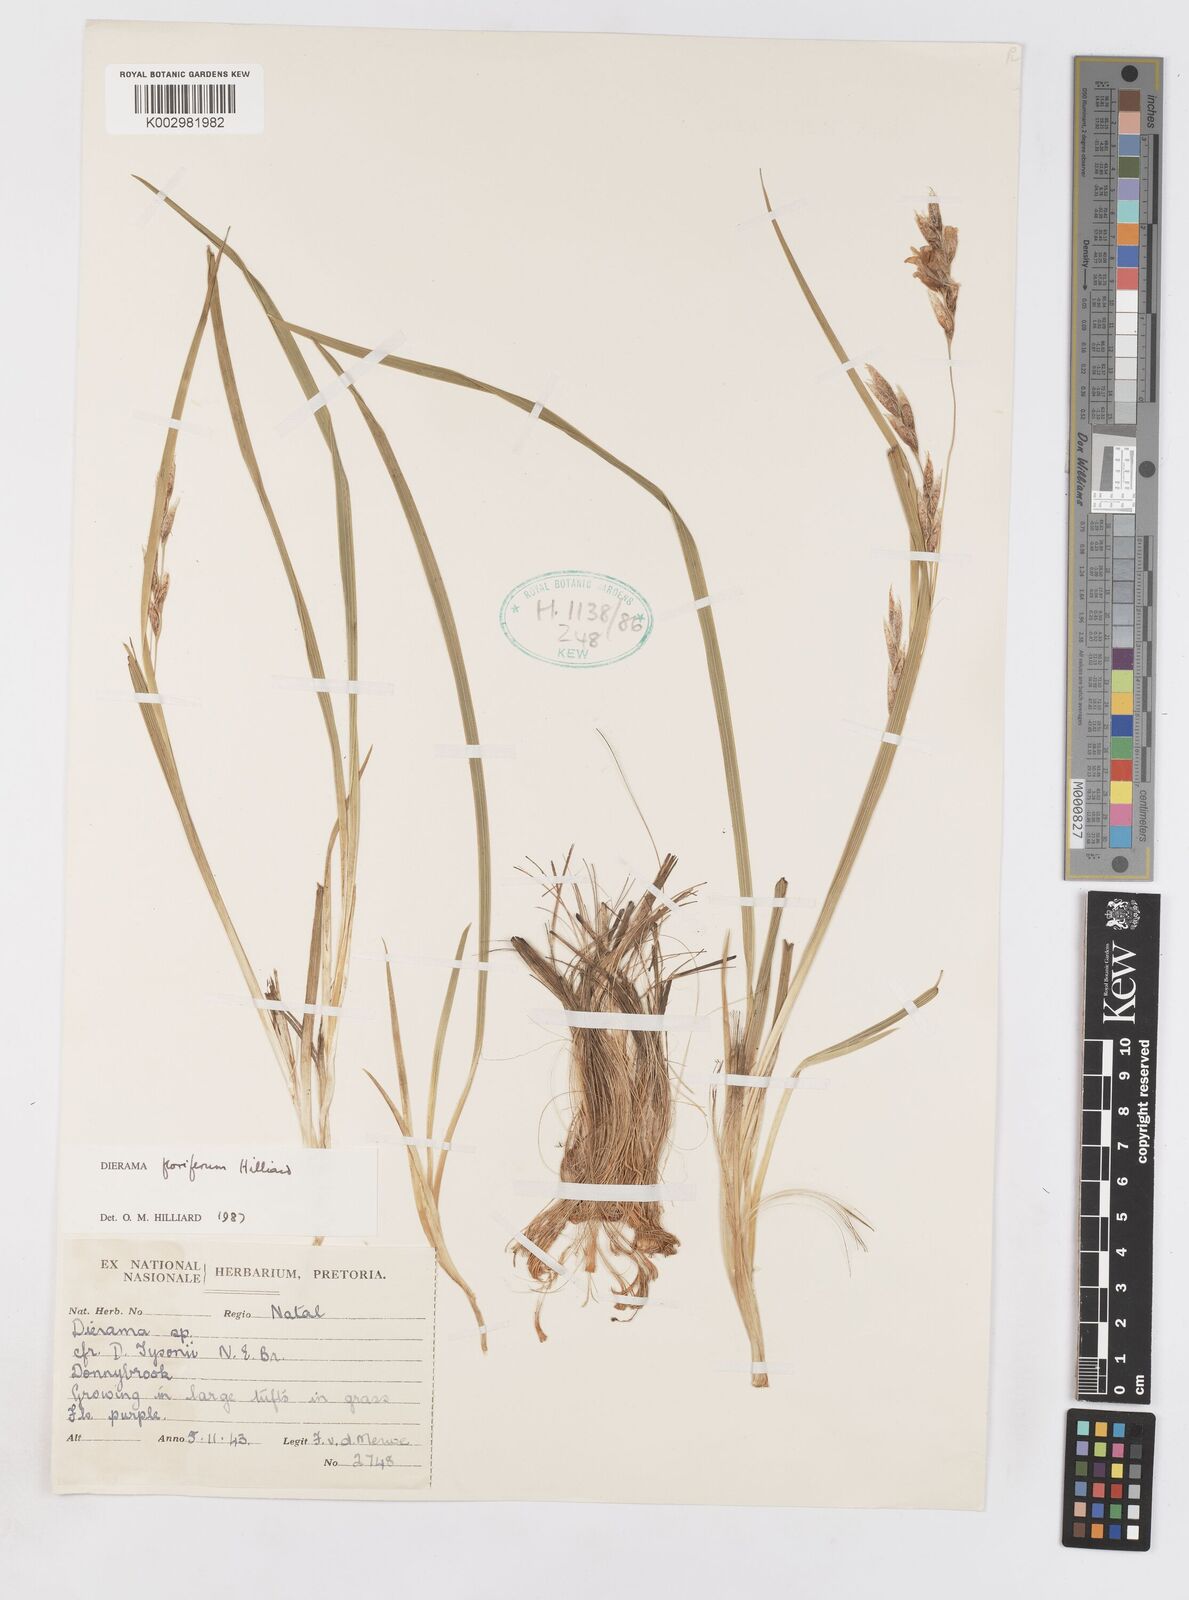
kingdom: Plantae
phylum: Tracheophyta
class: Liliopsida
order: Asparagales
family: Iridaceae
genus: Dierama
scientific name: Dierama floriferum
